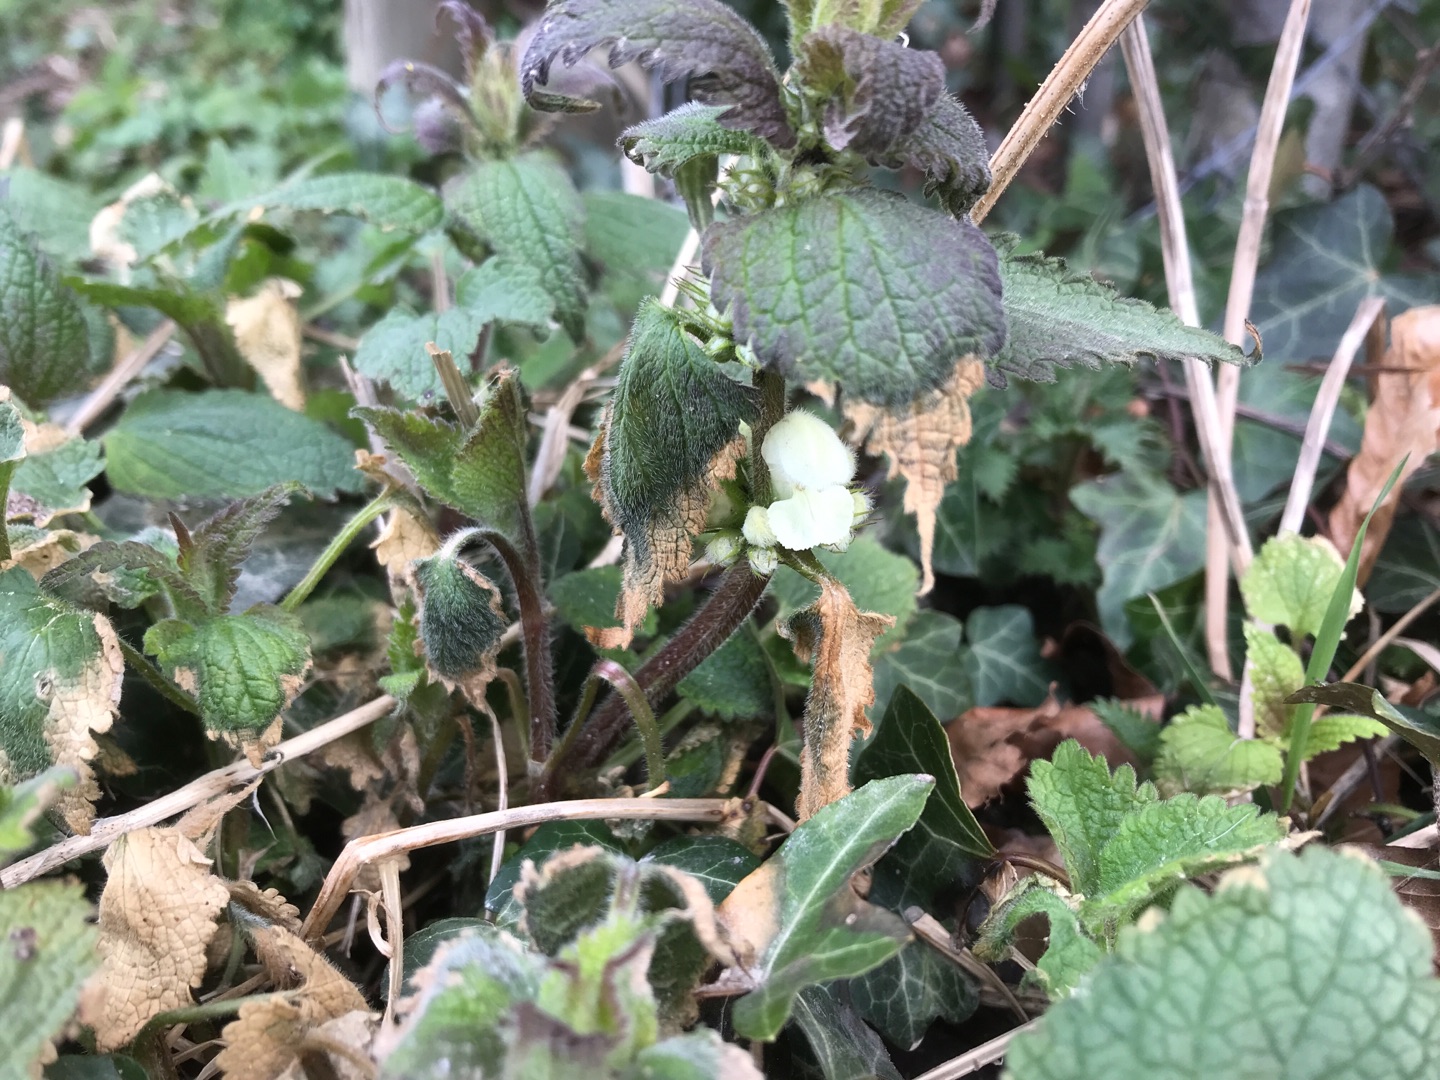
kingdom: Plantae
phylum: Tracheophyta
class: Magnoliopsida
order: Lamiales
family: Lamiaceae
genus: Lamium
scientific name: Lamium album
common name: Døvnælde
